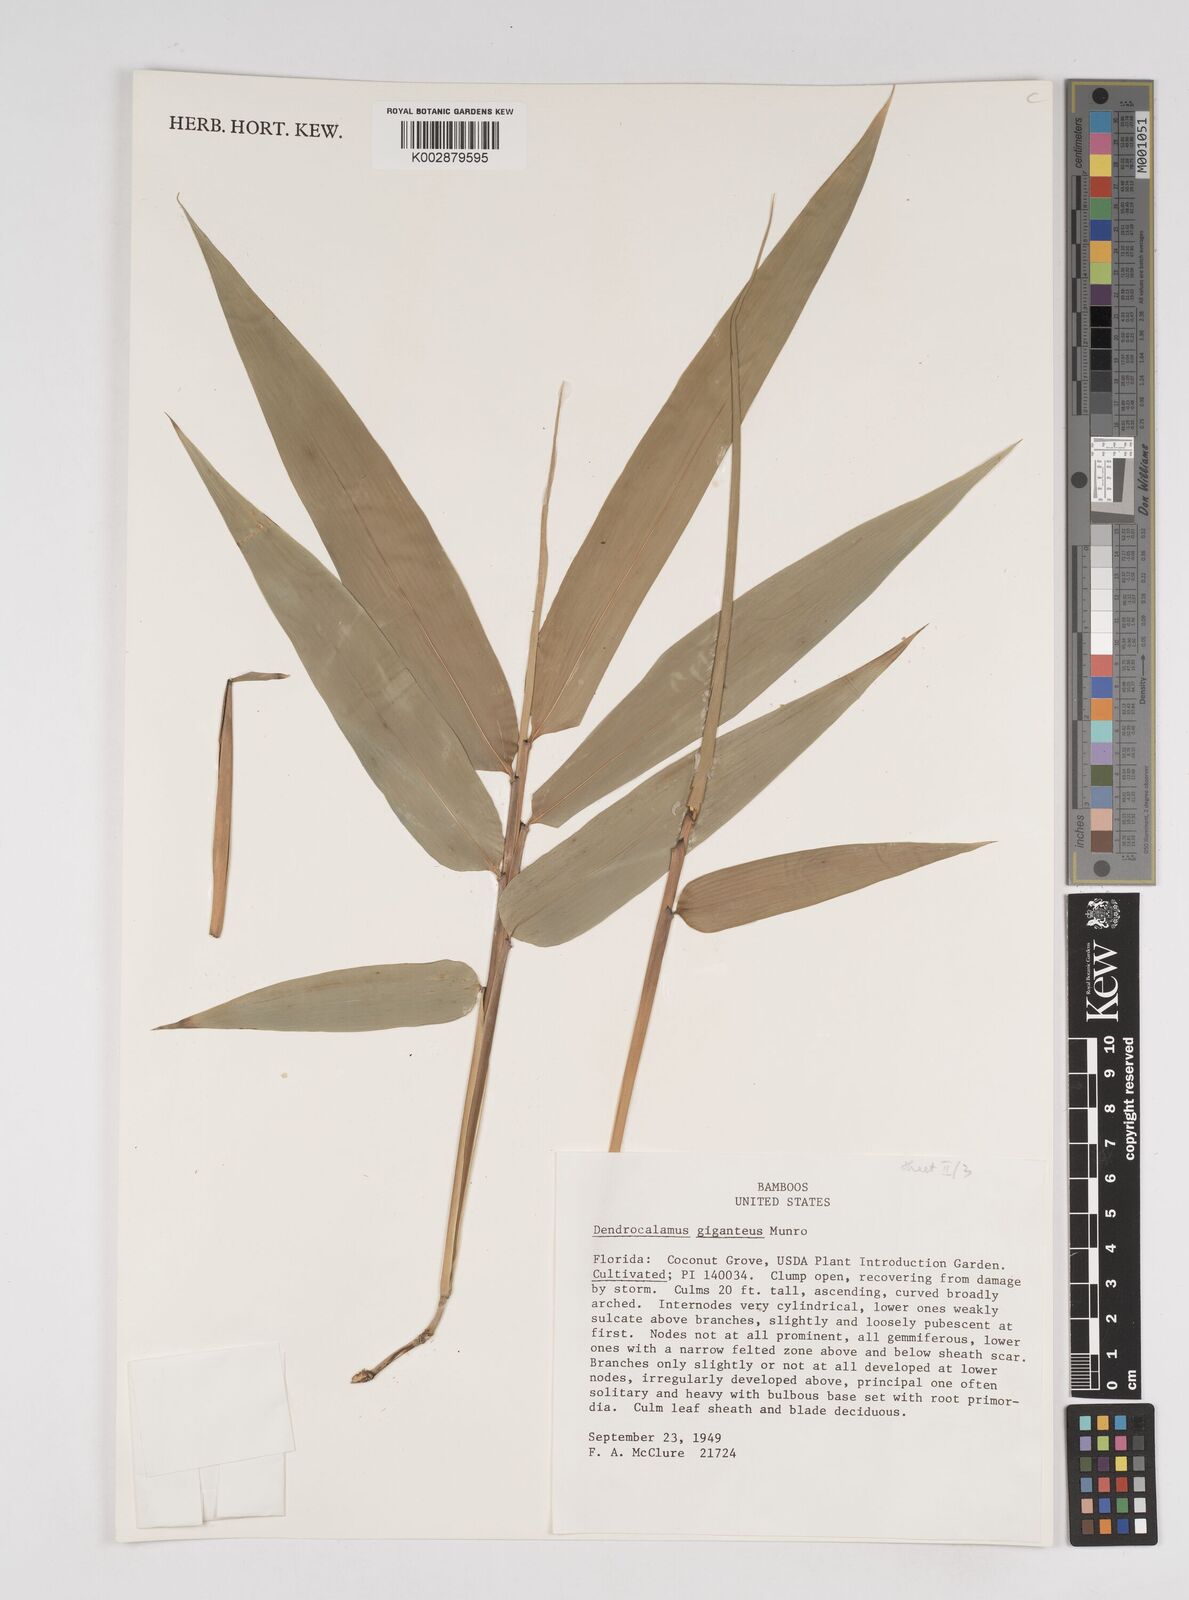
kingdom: Plantae
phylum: Tracheophyta
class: Liliopsida
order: Poales
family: Poaceae
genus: Dendrocalamus
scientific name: Dendrocalamus giganteus
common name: Giant bamboo
